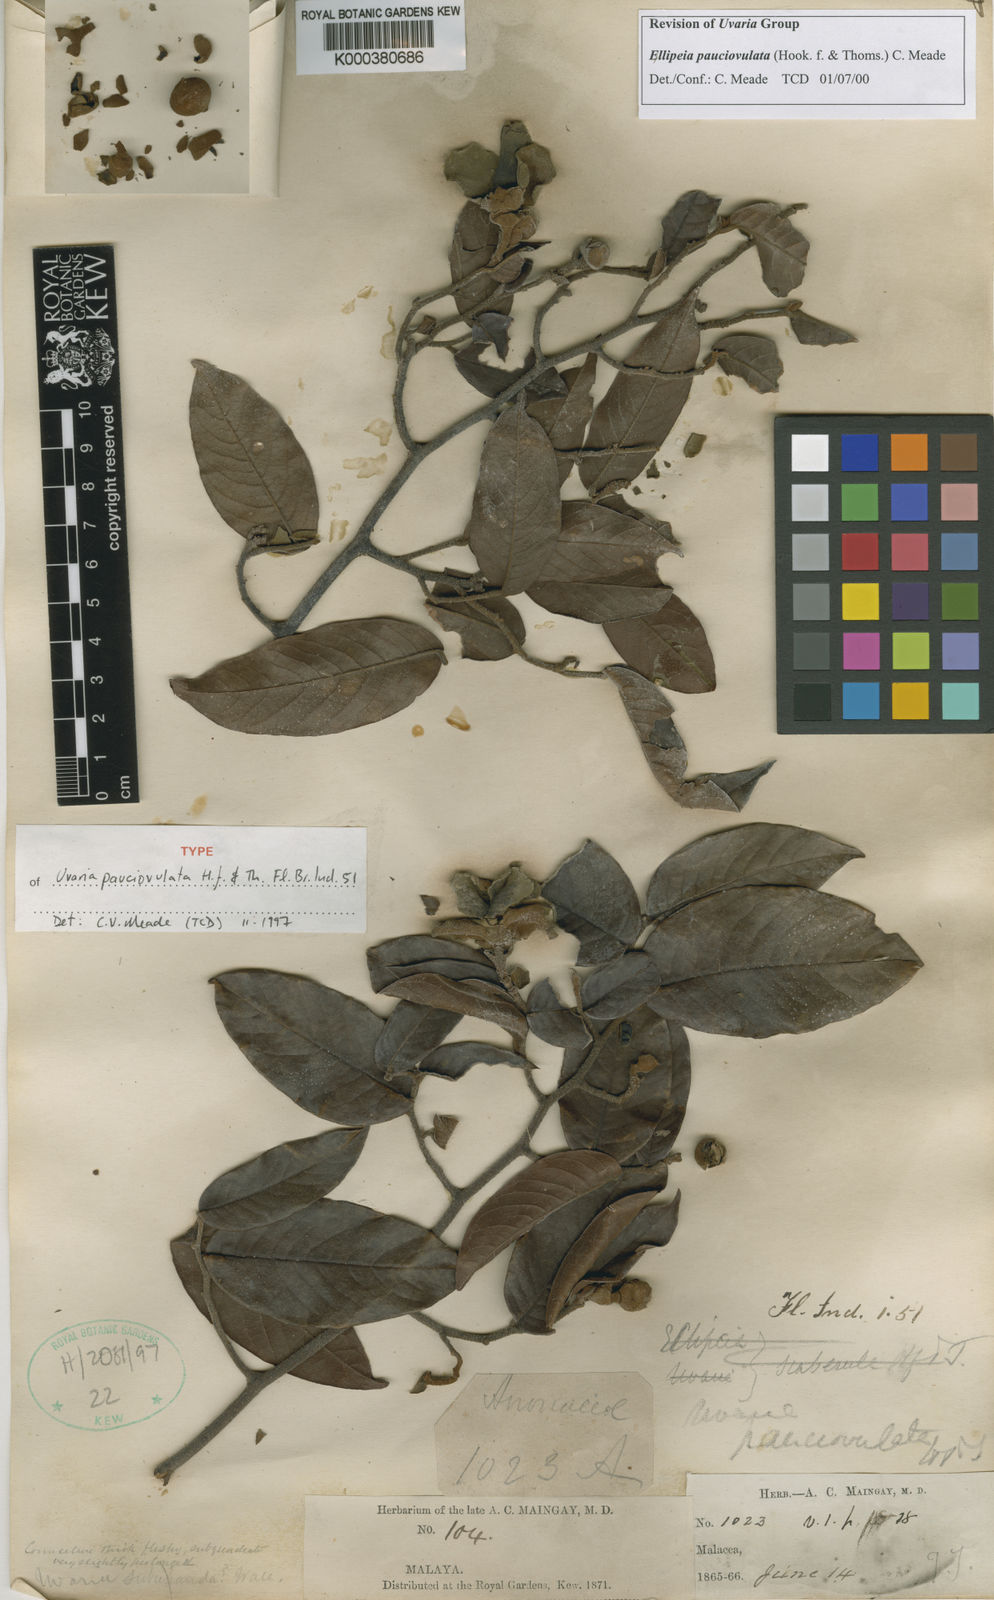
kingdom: Plantae
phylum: Tracheophyta
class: Magnoliopsida
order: Magnoliales
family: Annonaceae
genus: Uvaria
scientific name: Uvaria pauciovulata
